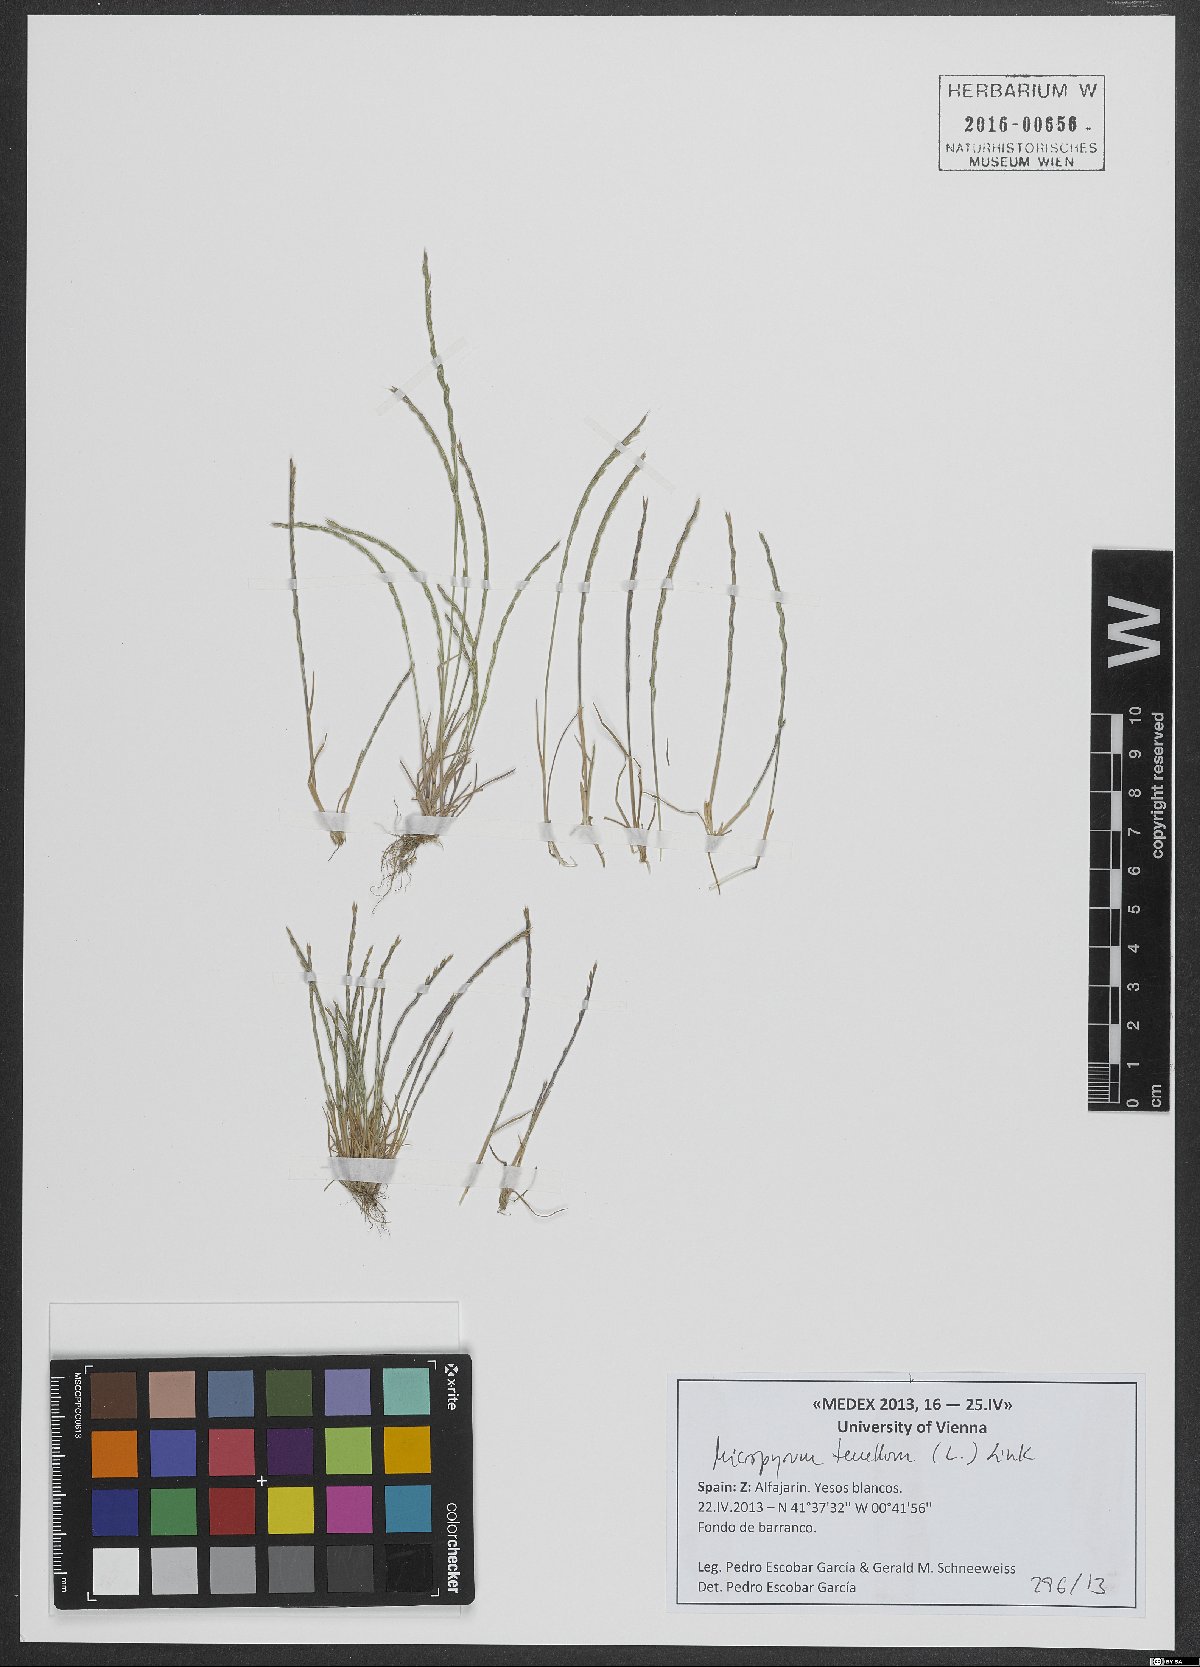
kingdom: Plantae
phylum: Tracheophyta
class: Liliopsida
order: Poales
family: Poaceae
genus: Festuca
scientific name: Festuca lachenalii
